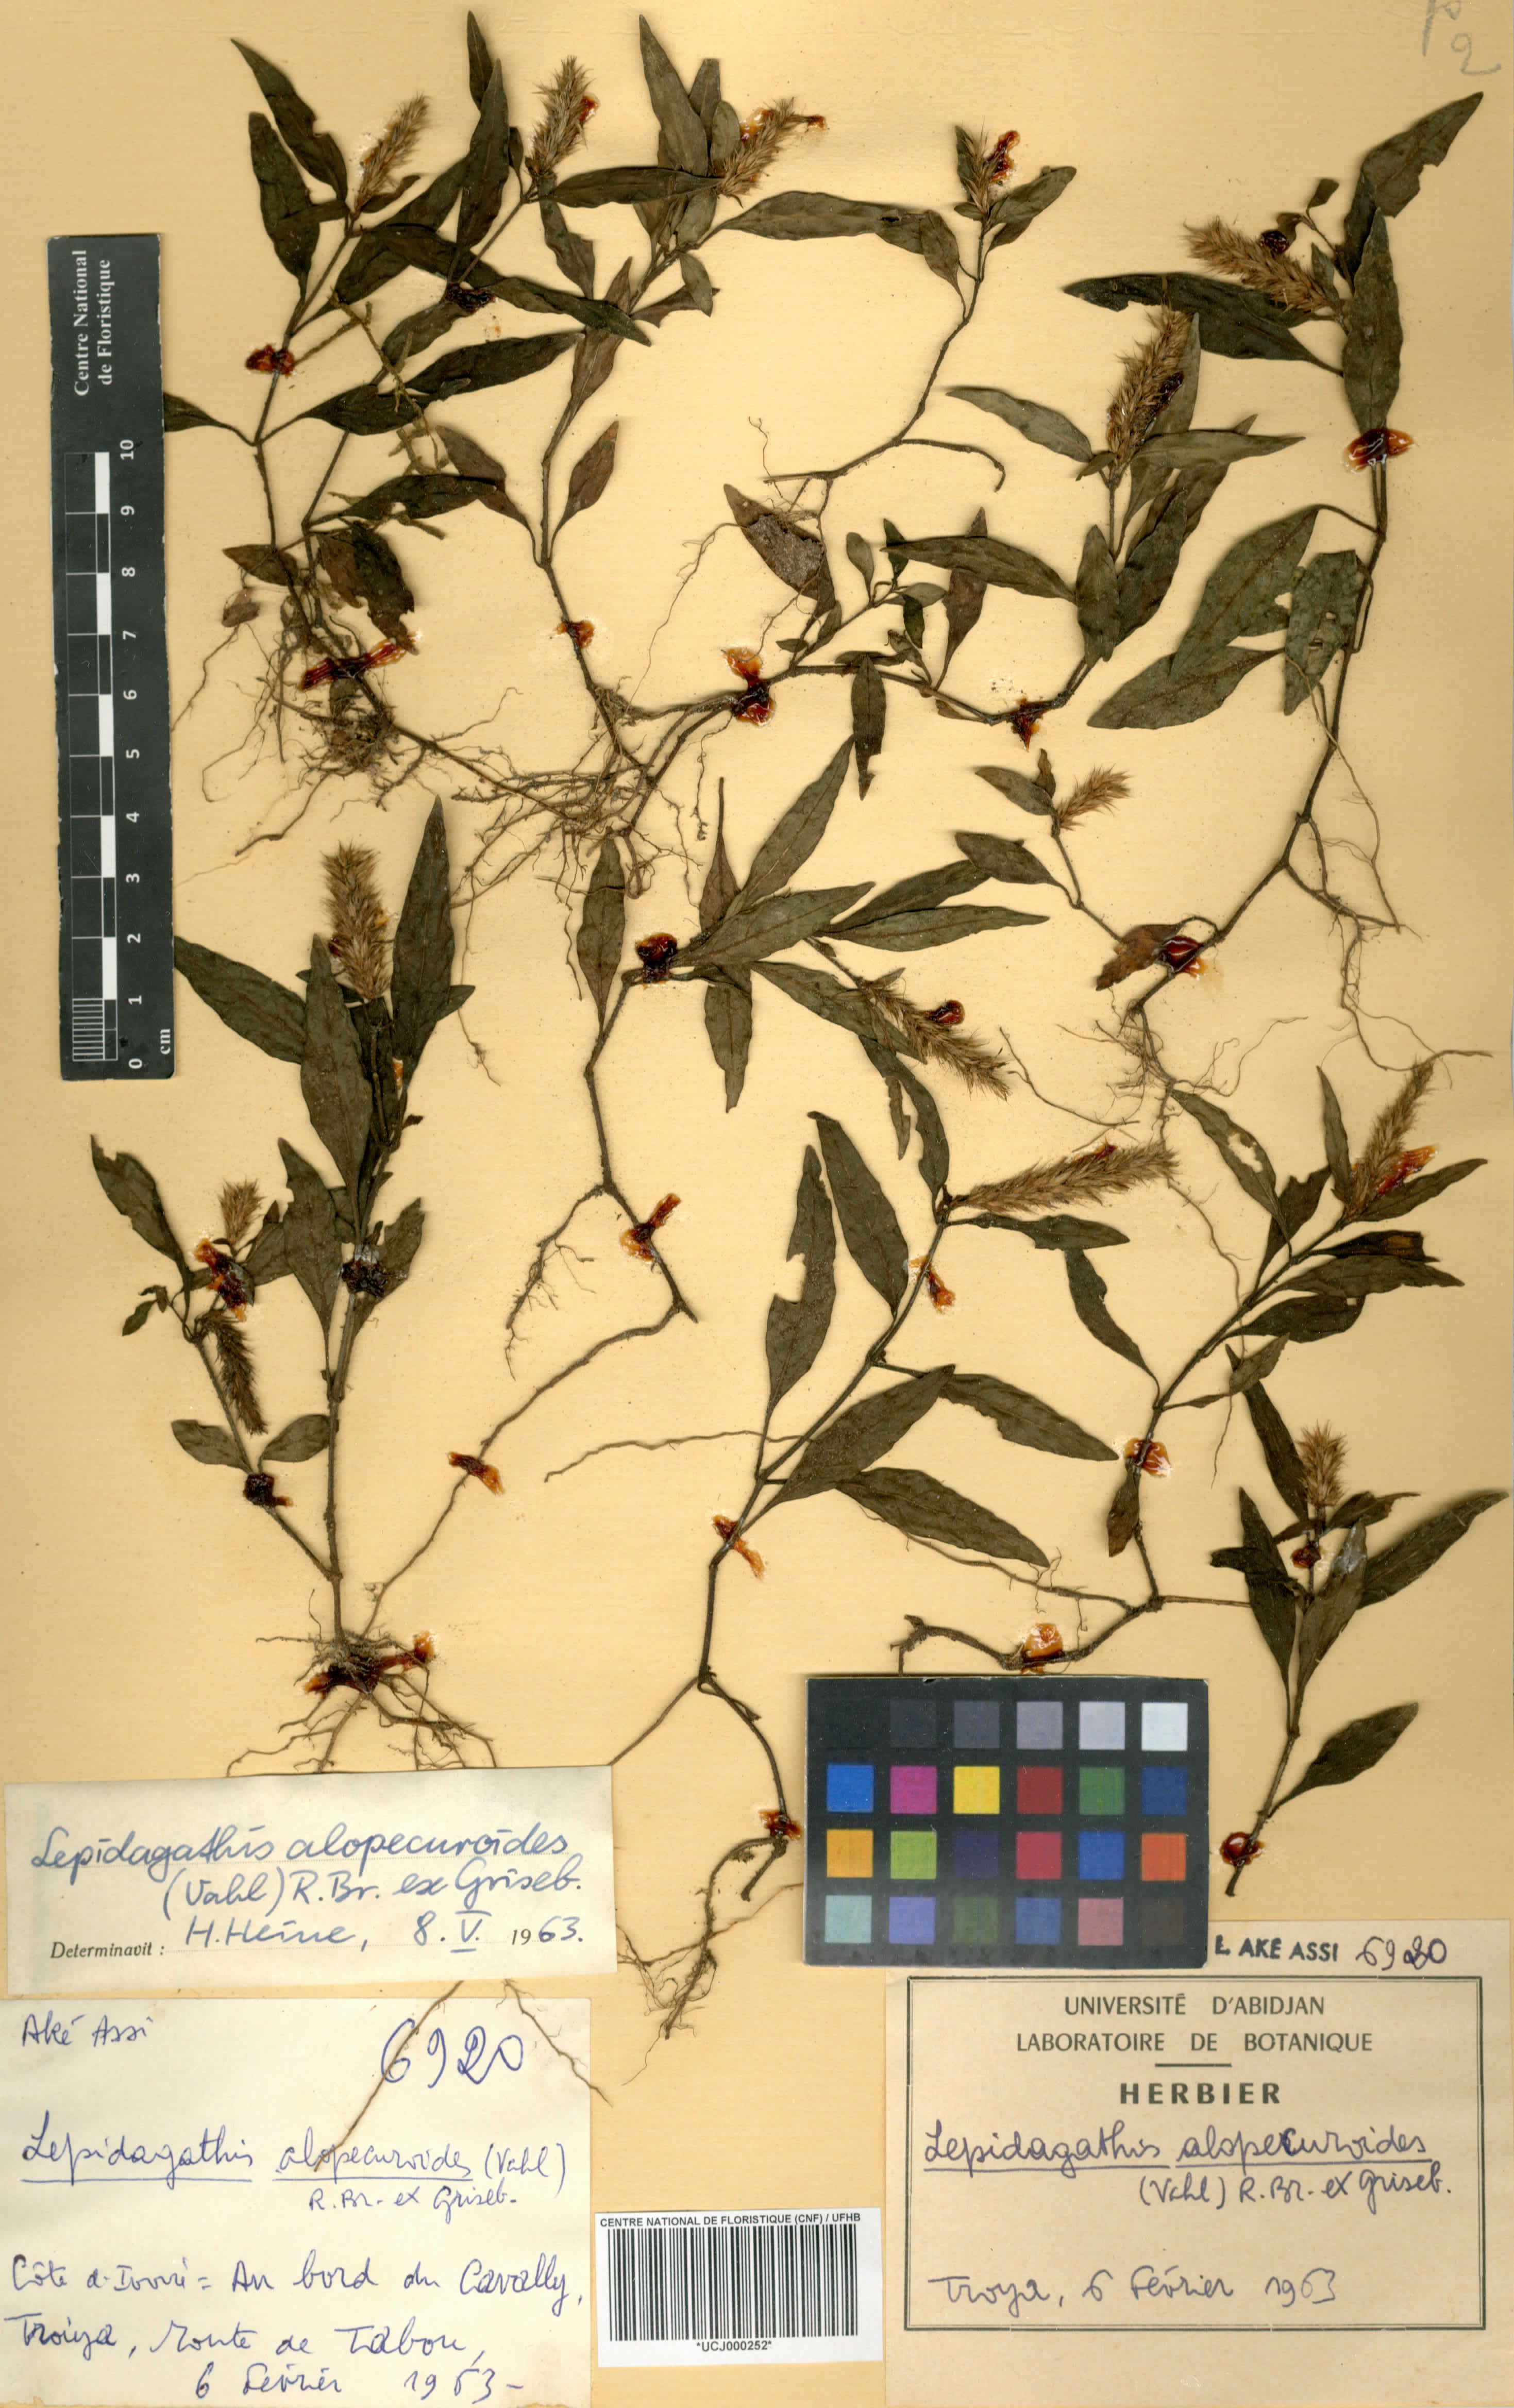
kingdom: Plantae
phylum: Tracheophyta
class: Magnoliopsida
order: Lamiales
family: Acanthaceae
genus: Lepidagathis
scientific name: Lepidagathis alopecuroidea
